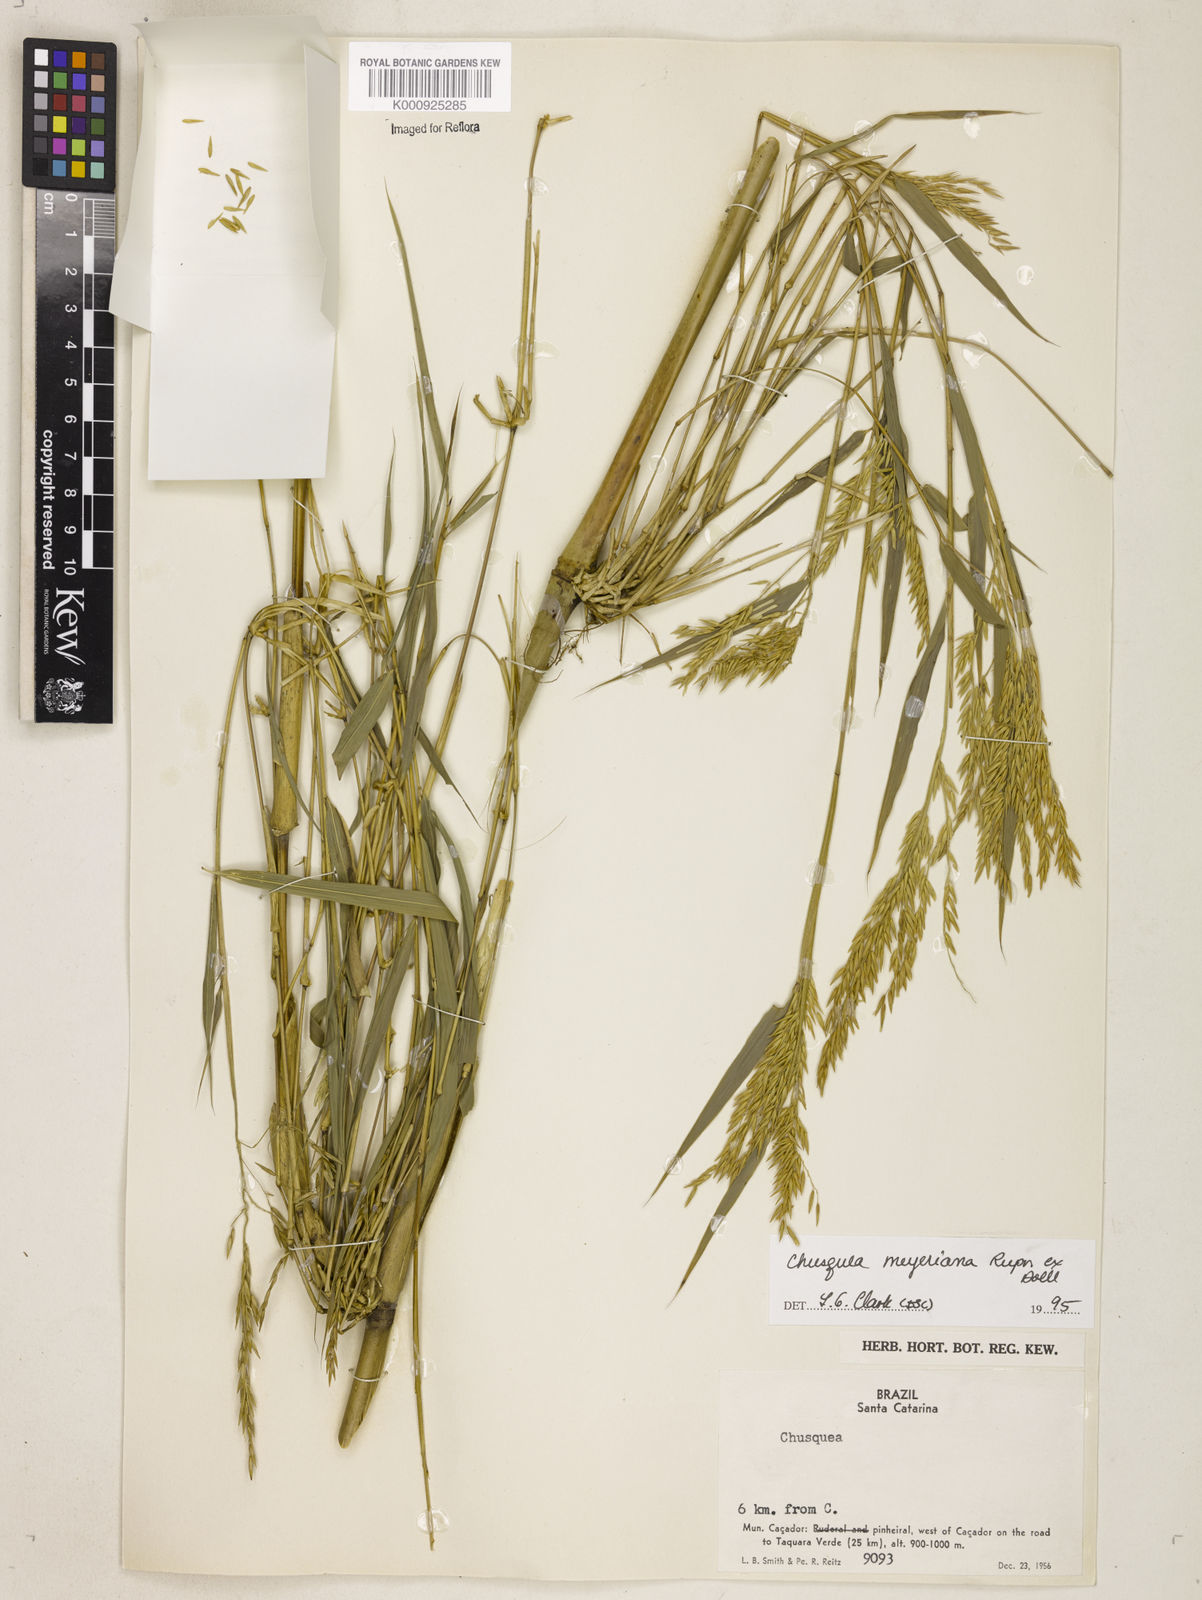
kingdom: Plantae
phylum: Tracheophyta
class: Liliopsida
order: Poales
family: Poaceae
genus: Chusquea
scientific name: Chusquea
